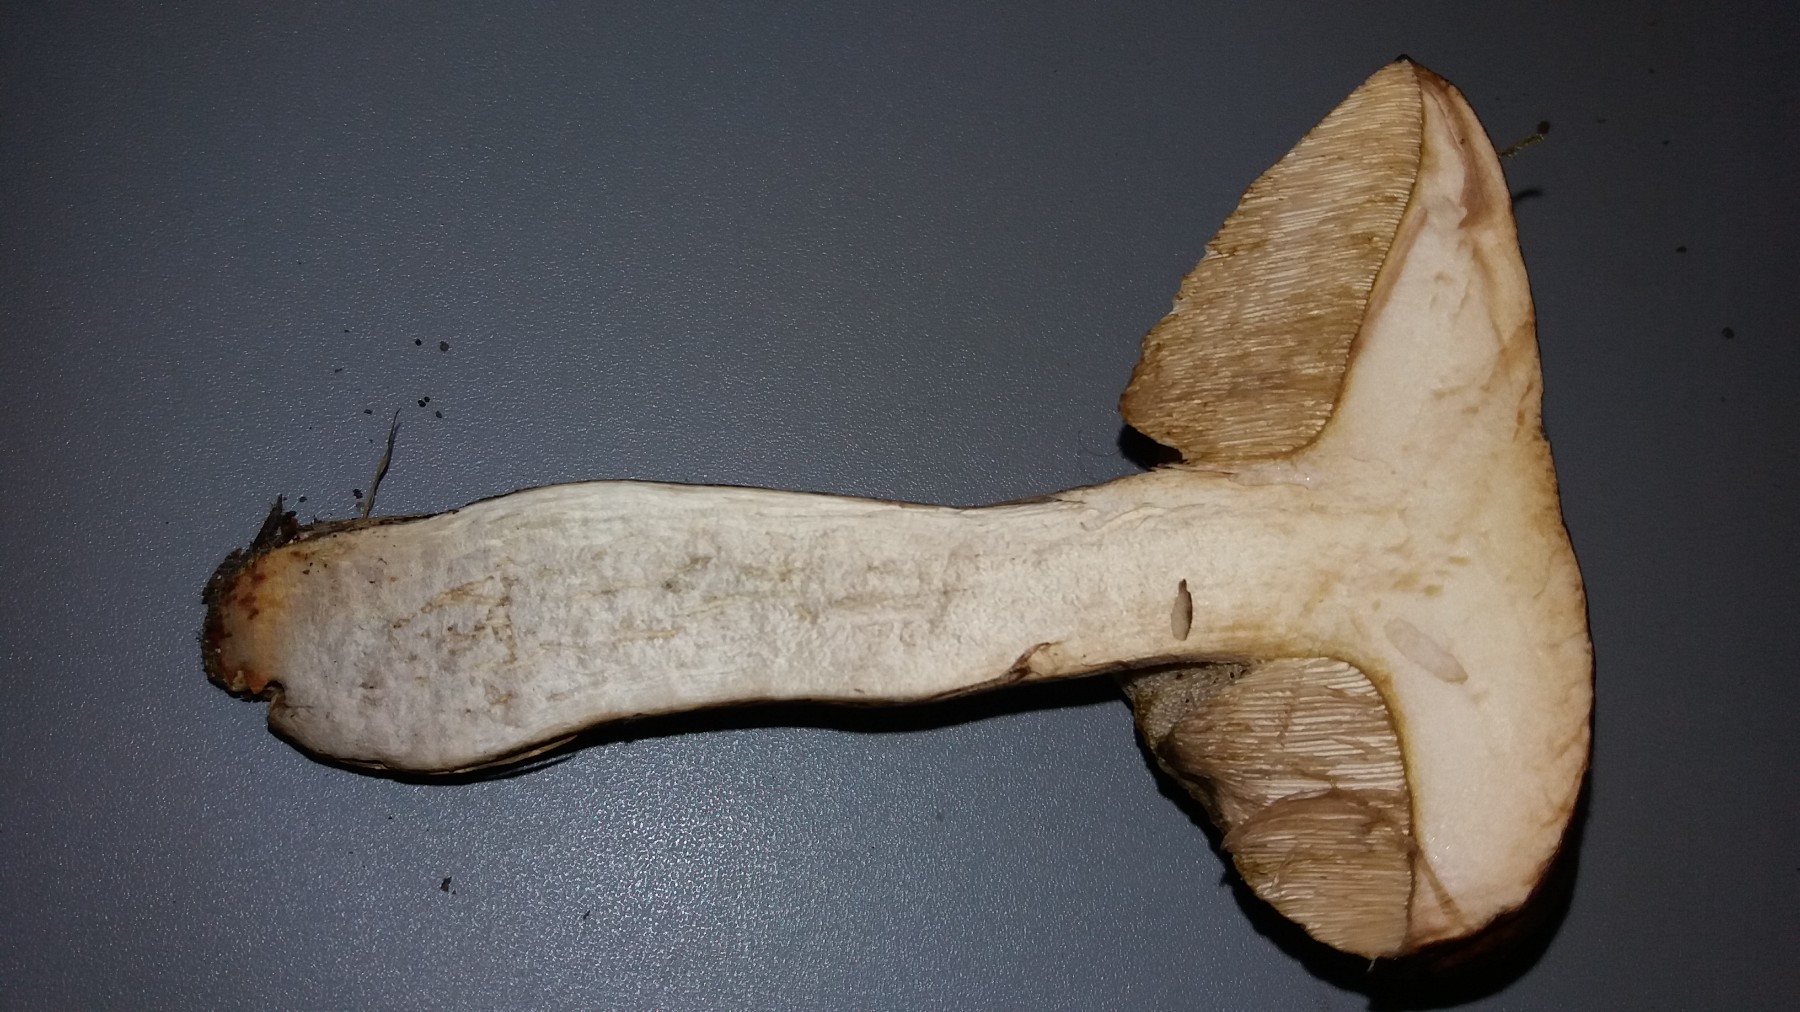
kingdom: Fungi
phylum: Basidiomycota
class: Agaricomycetes
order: Boletales
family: Boletaceae
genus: Leccinum
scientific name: Leccinum scabrum
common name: brun skælrørhat
